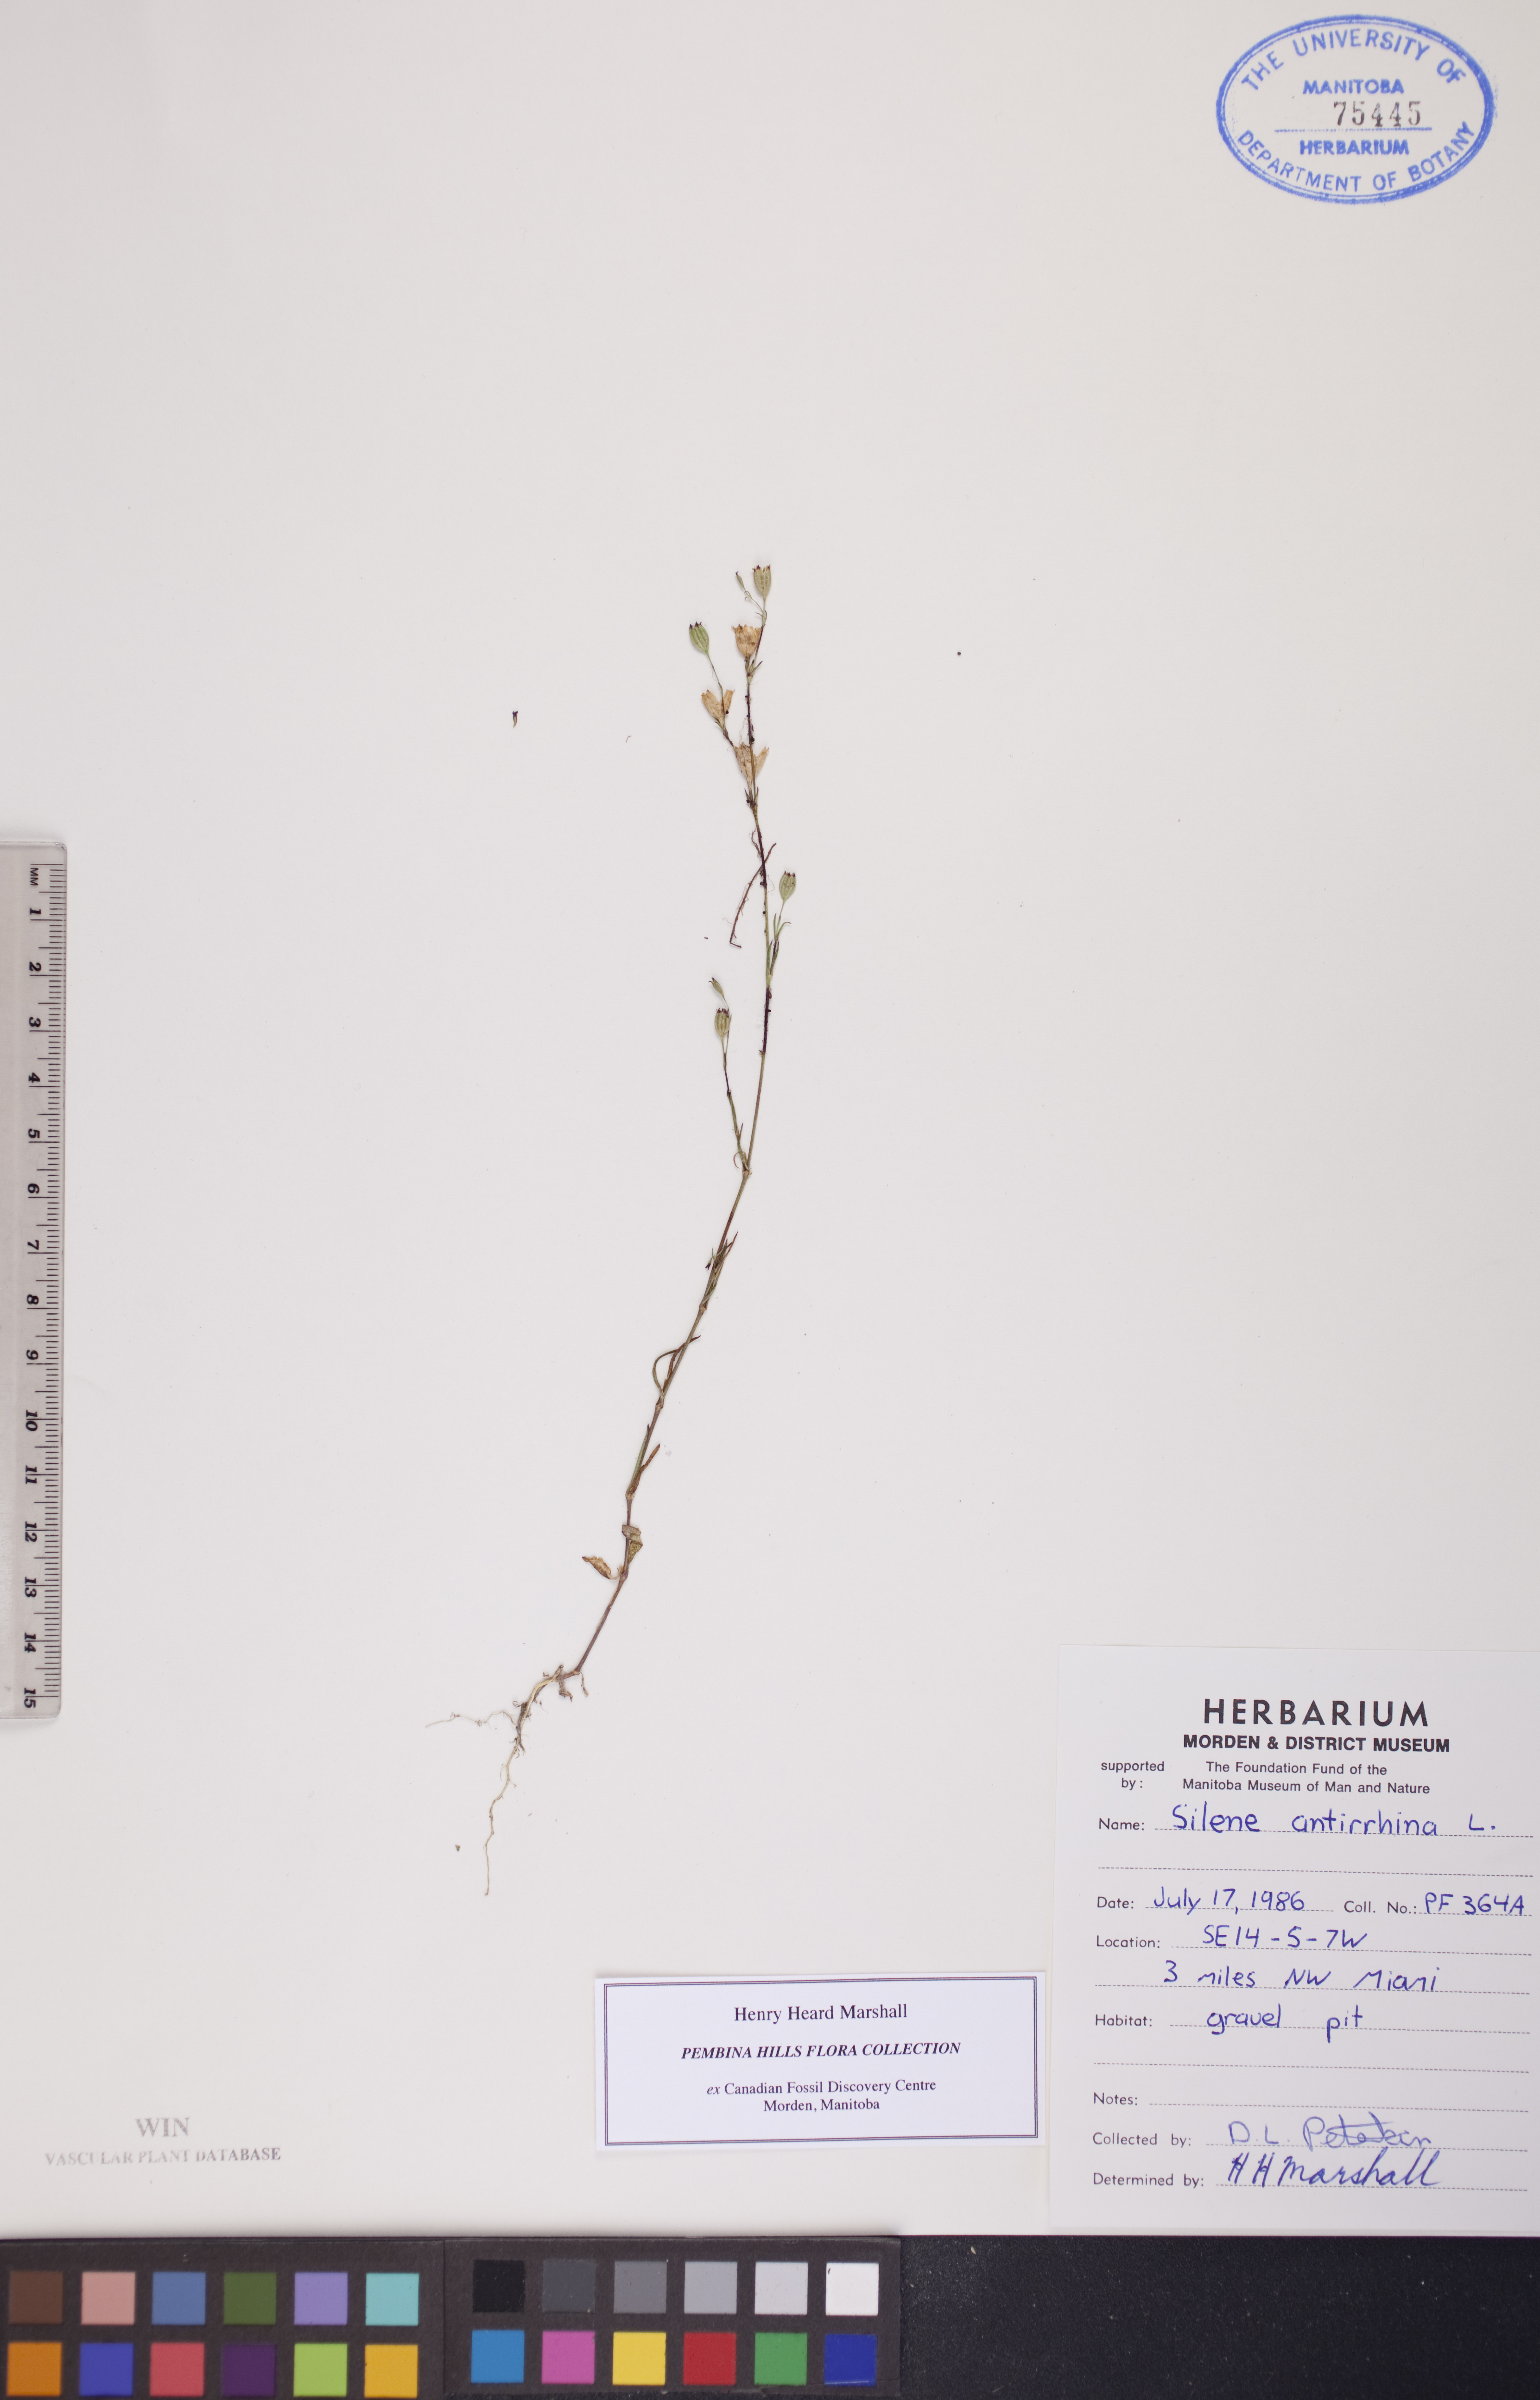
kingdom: Plantae
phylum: Tracheophyta
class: Magnoliopsida
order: Caryophyllales
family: Caryophyllaceae
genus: Silene
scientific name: Silene antirrhina
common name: Sleepy catchfly
